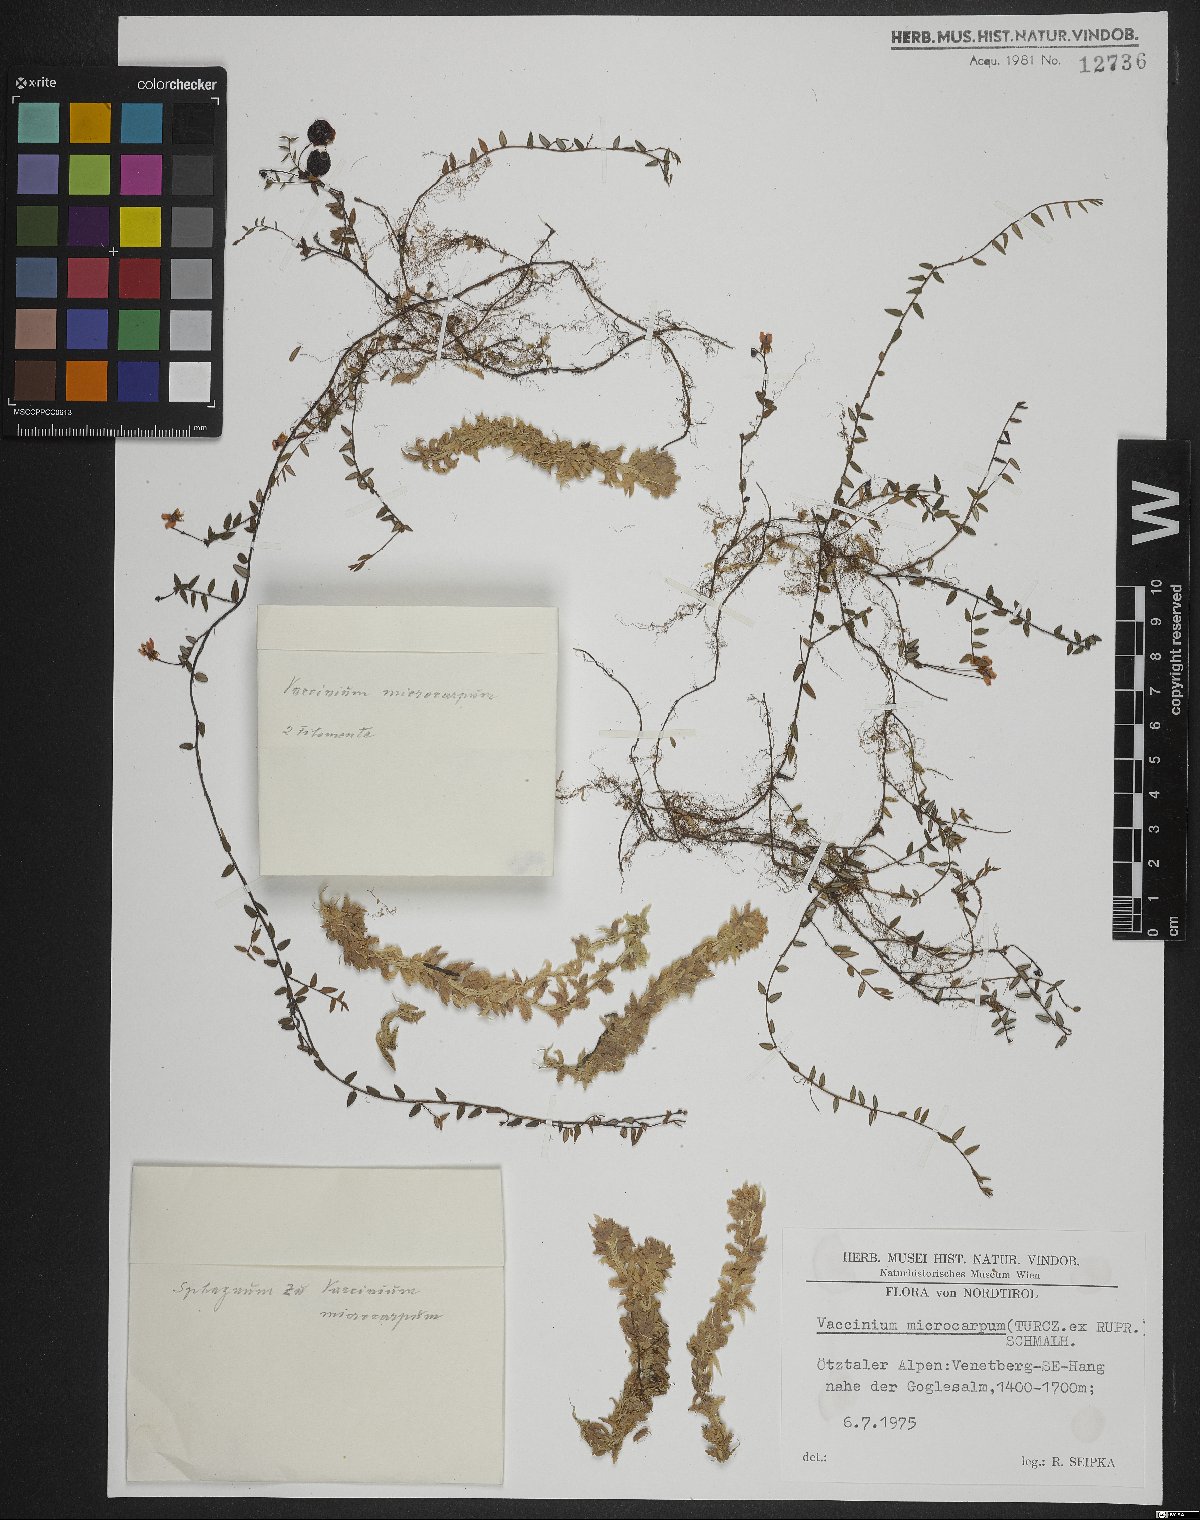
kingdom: Plantae
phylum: Tracheophyta
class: Magnoliopsida
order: Ericales
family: Ericaceae
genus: Vaccinium
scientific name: Vaccinium microcarpum
